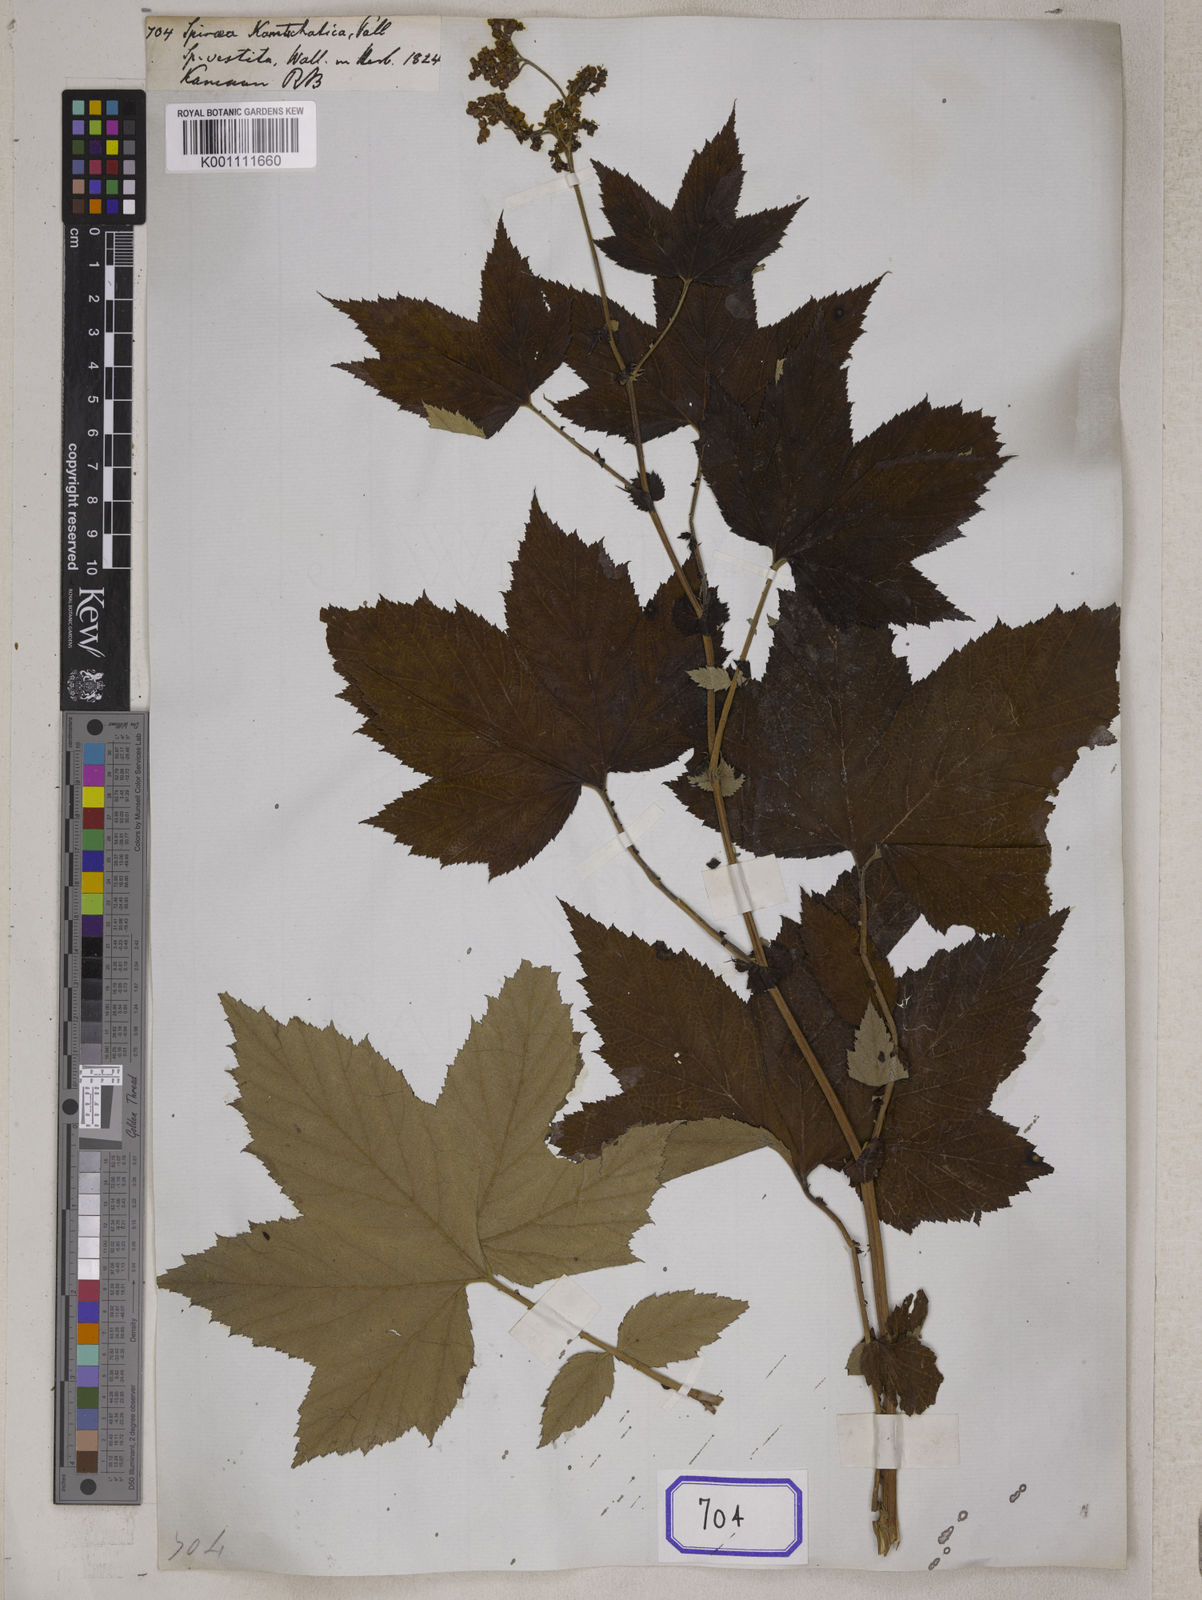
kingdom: Plantae
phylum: Tracheophyta
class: Magnoliopsida
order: Rosales
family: Rosaceae
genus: Spiraea
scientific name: Spiraea
